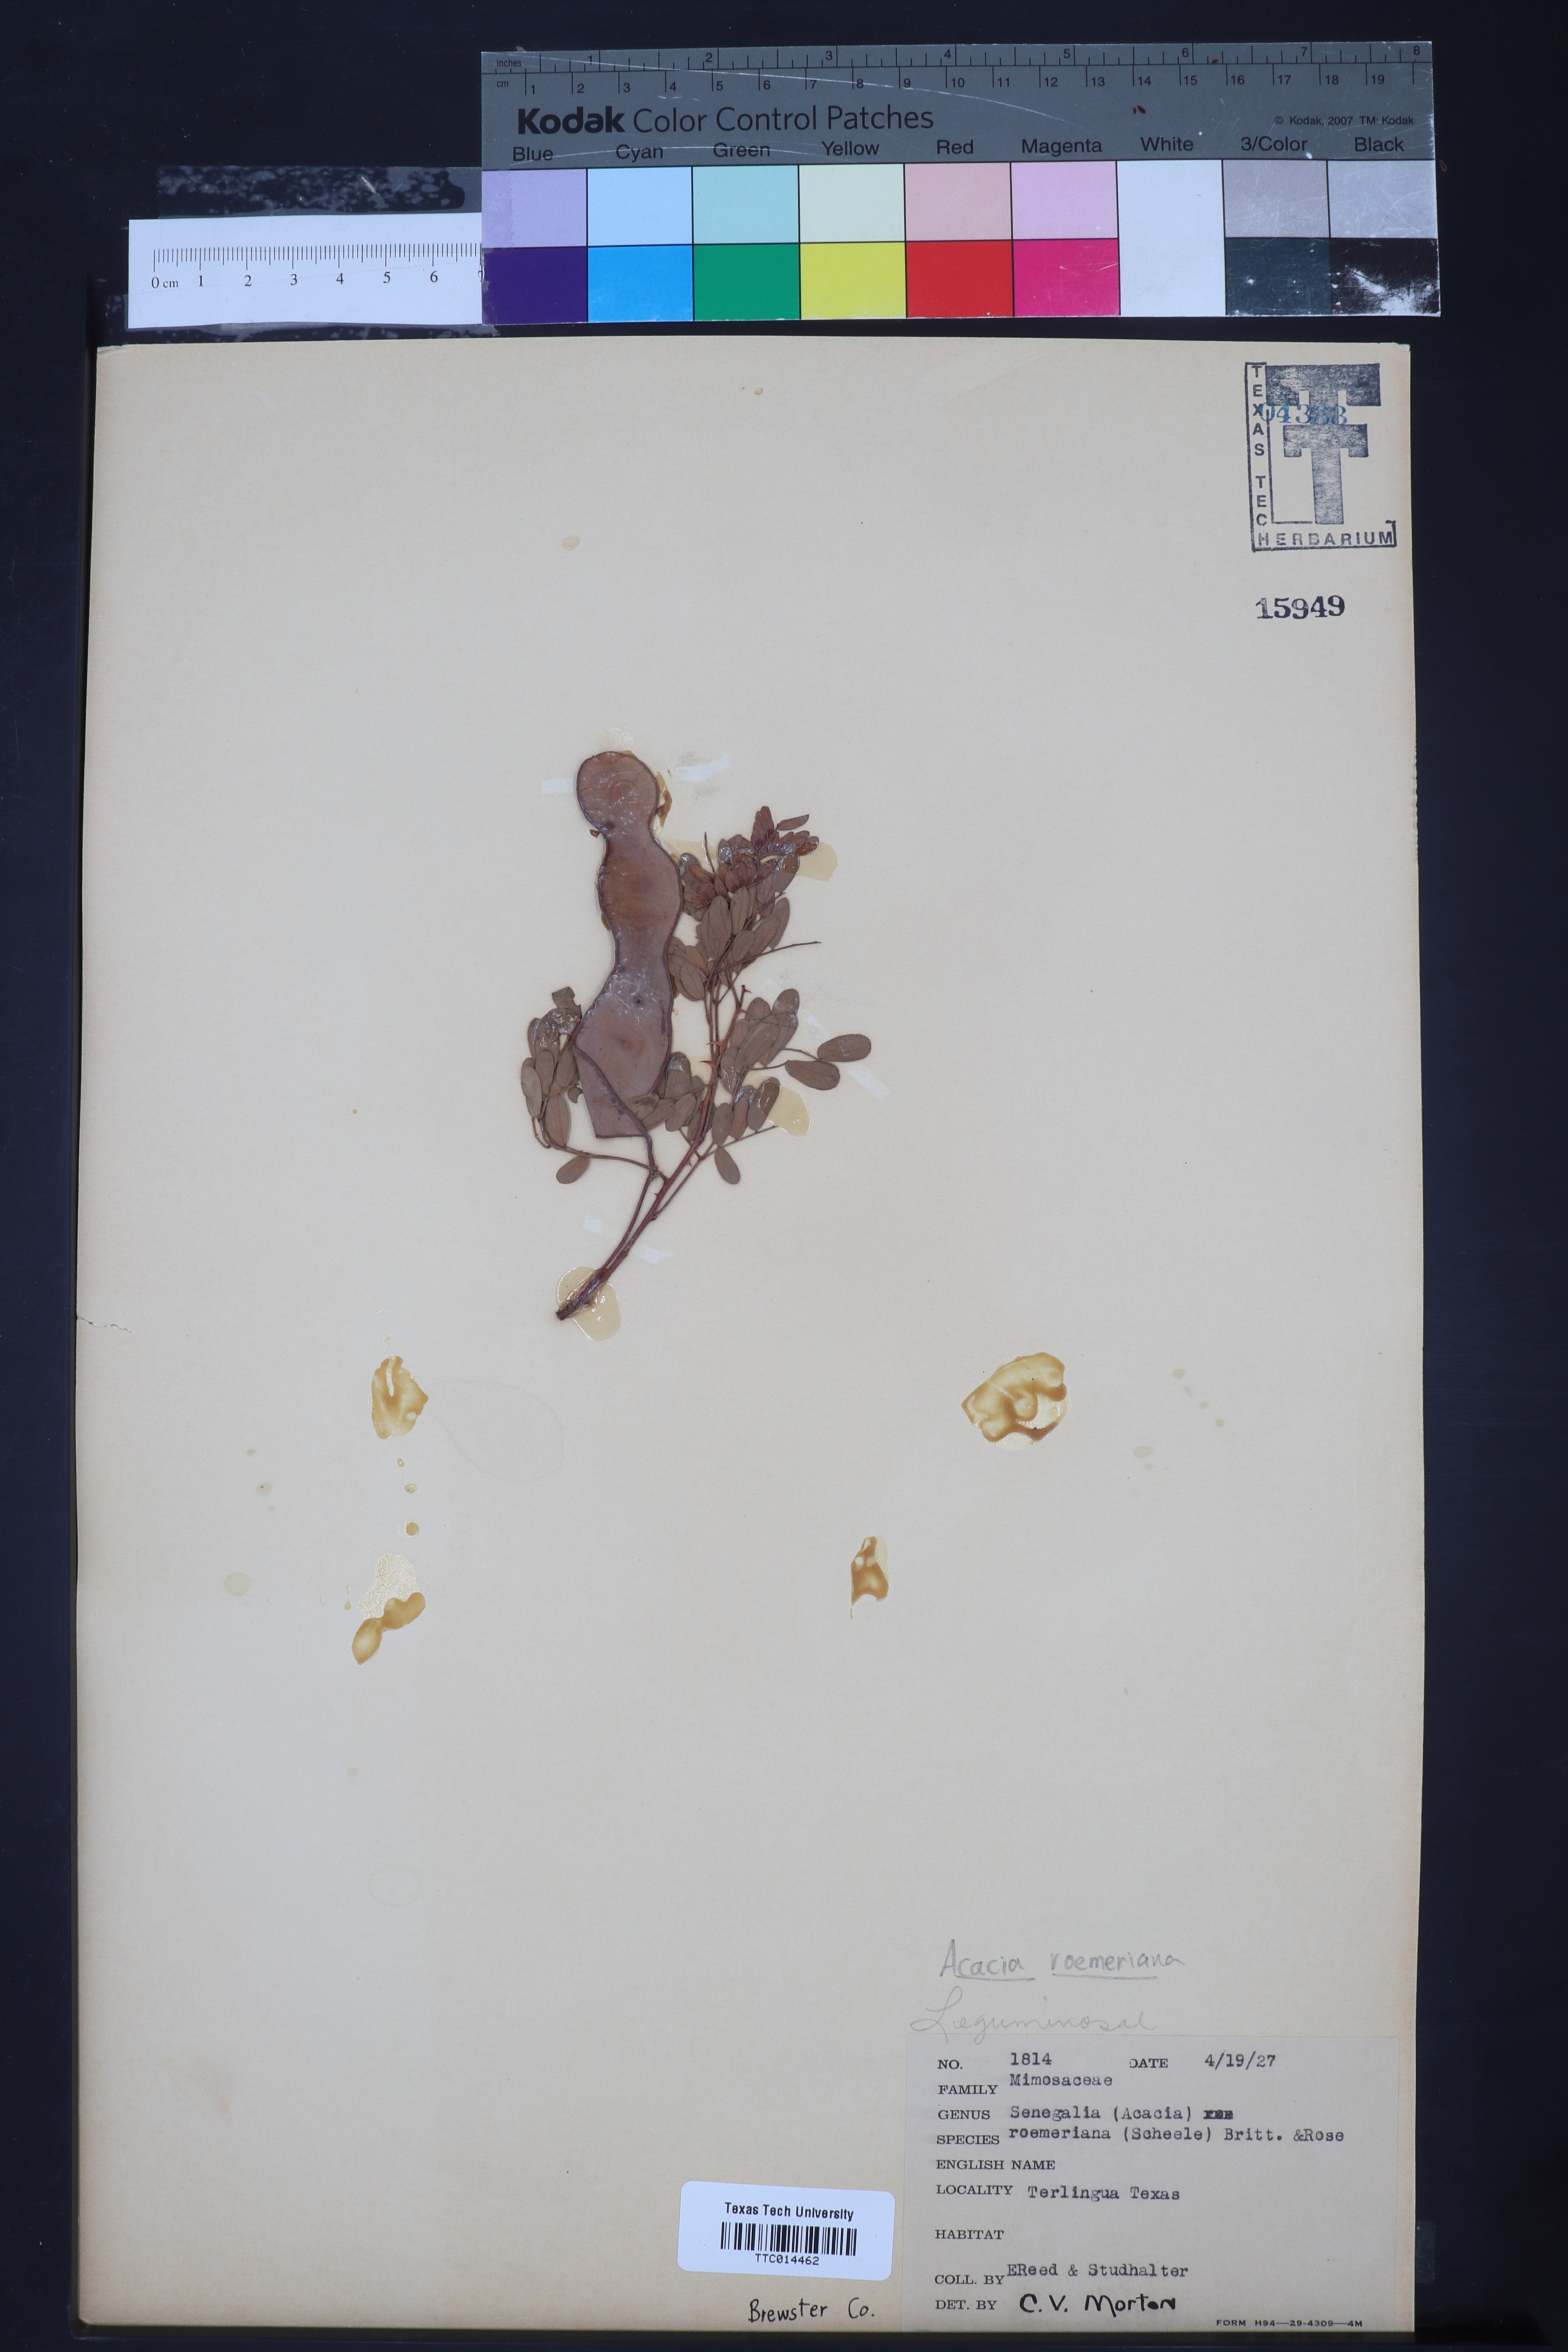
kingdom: Plantae
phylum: Tracheophyta
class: Magnoliopsida
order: Fabales
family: Fabaceae
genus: Senegalia
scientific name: Senegalia roemeriana
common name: Roemer's acacia
